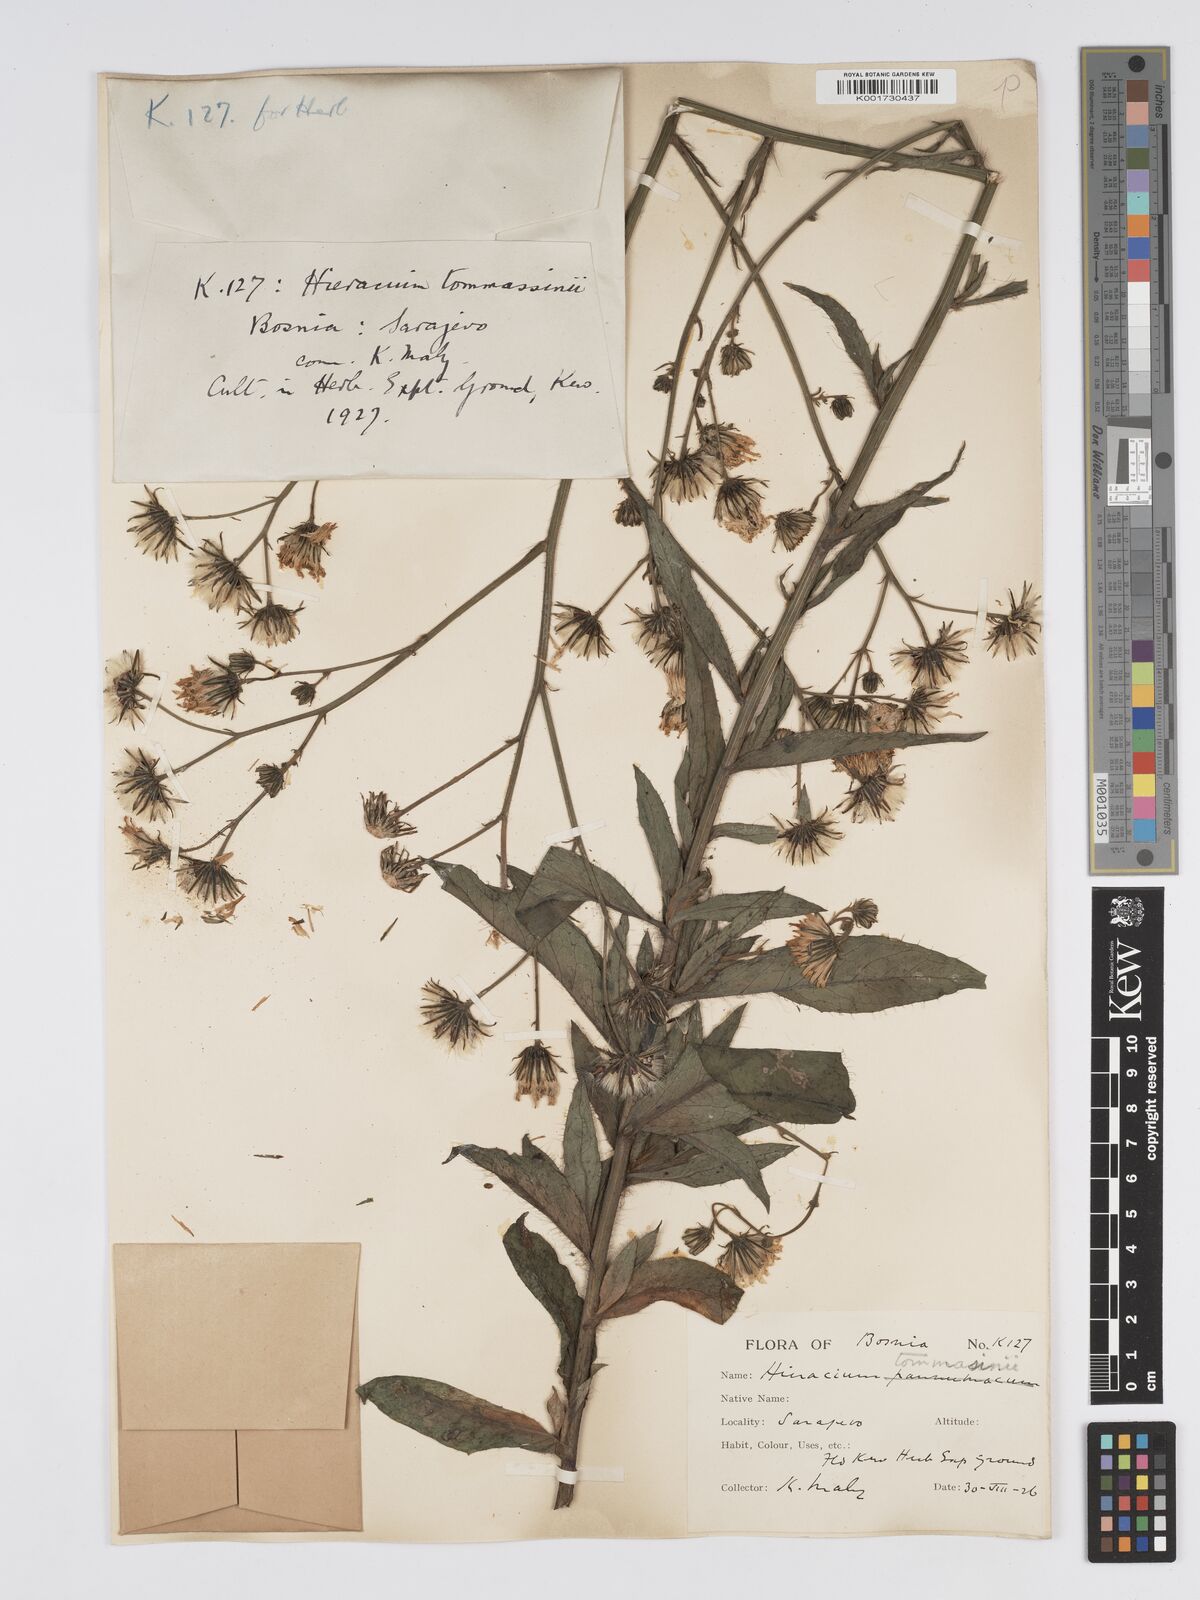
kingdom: Plantae
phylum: Tracheophyta
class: Magnoliopsida
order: Asterales
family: Asteraceae
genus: Hieracium
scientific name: Hieracium tommasinianum
